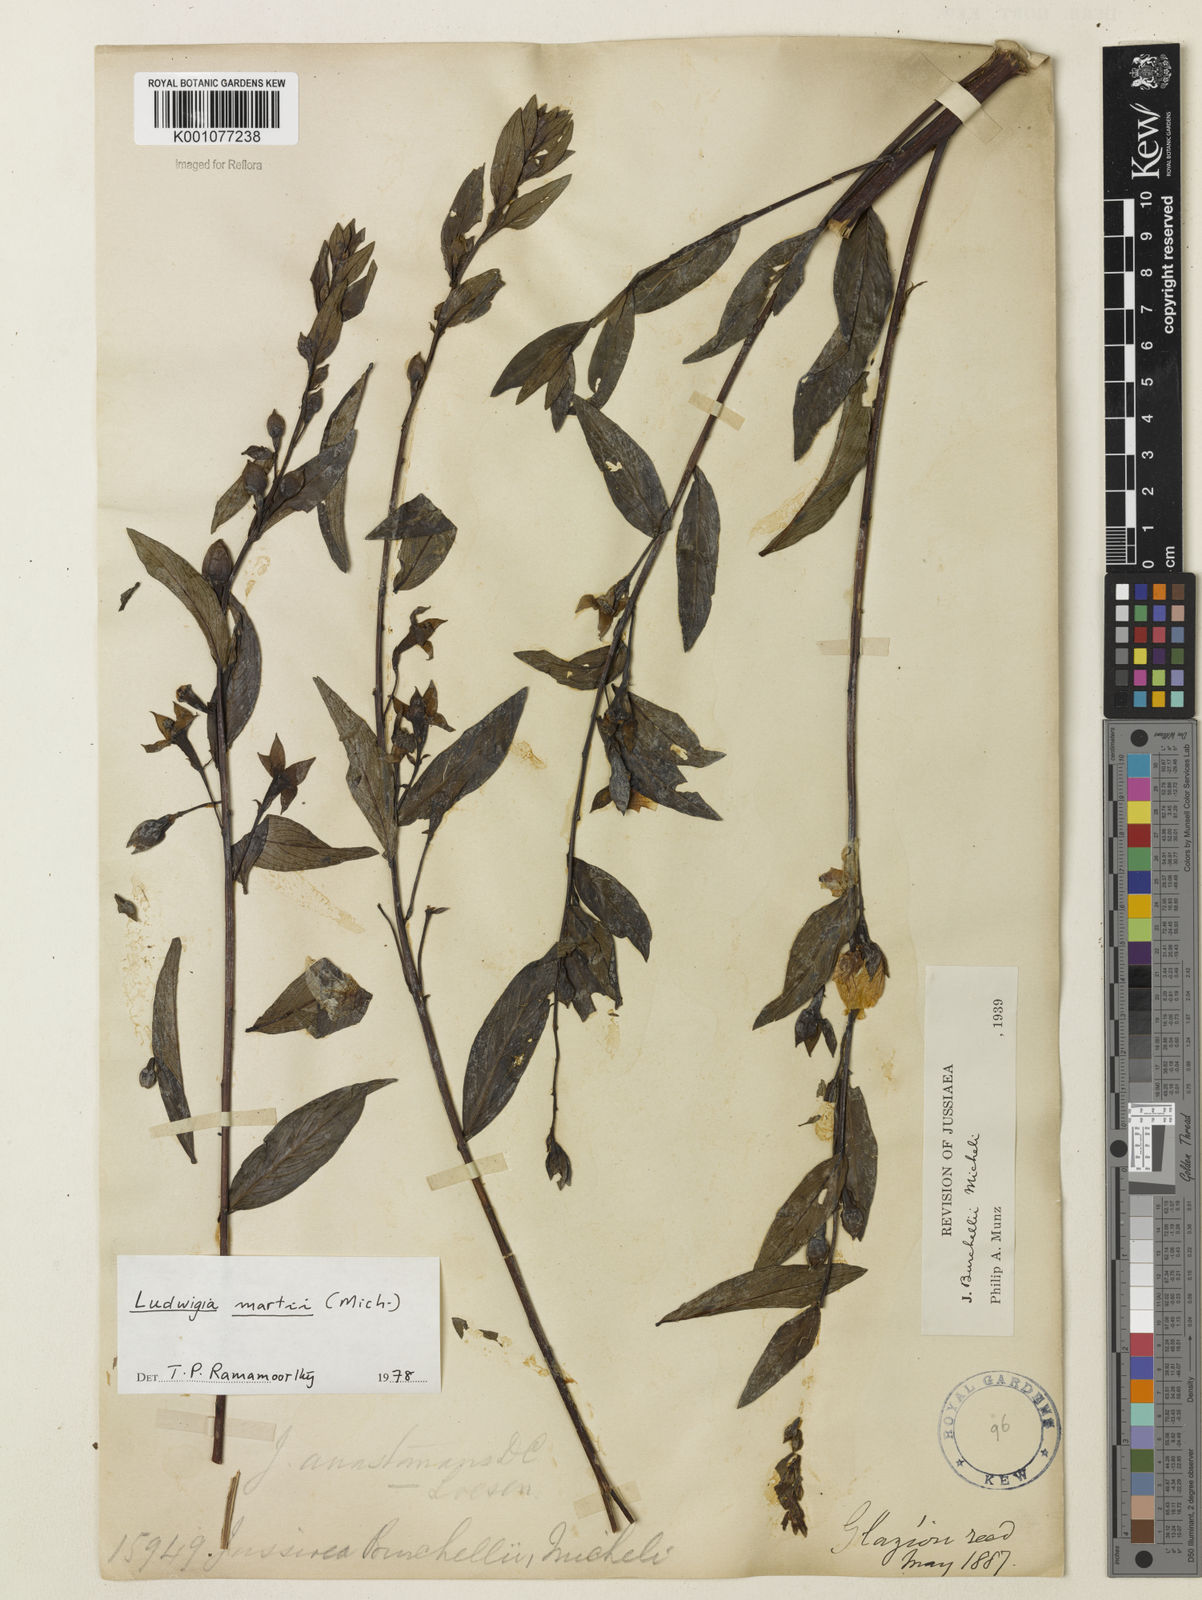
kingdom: Plantae
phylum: Tracheophyta
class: Magnoliopsida
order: Myrtales
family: Onagraceae
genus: Ludwigia
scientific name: Ludwigia martii
